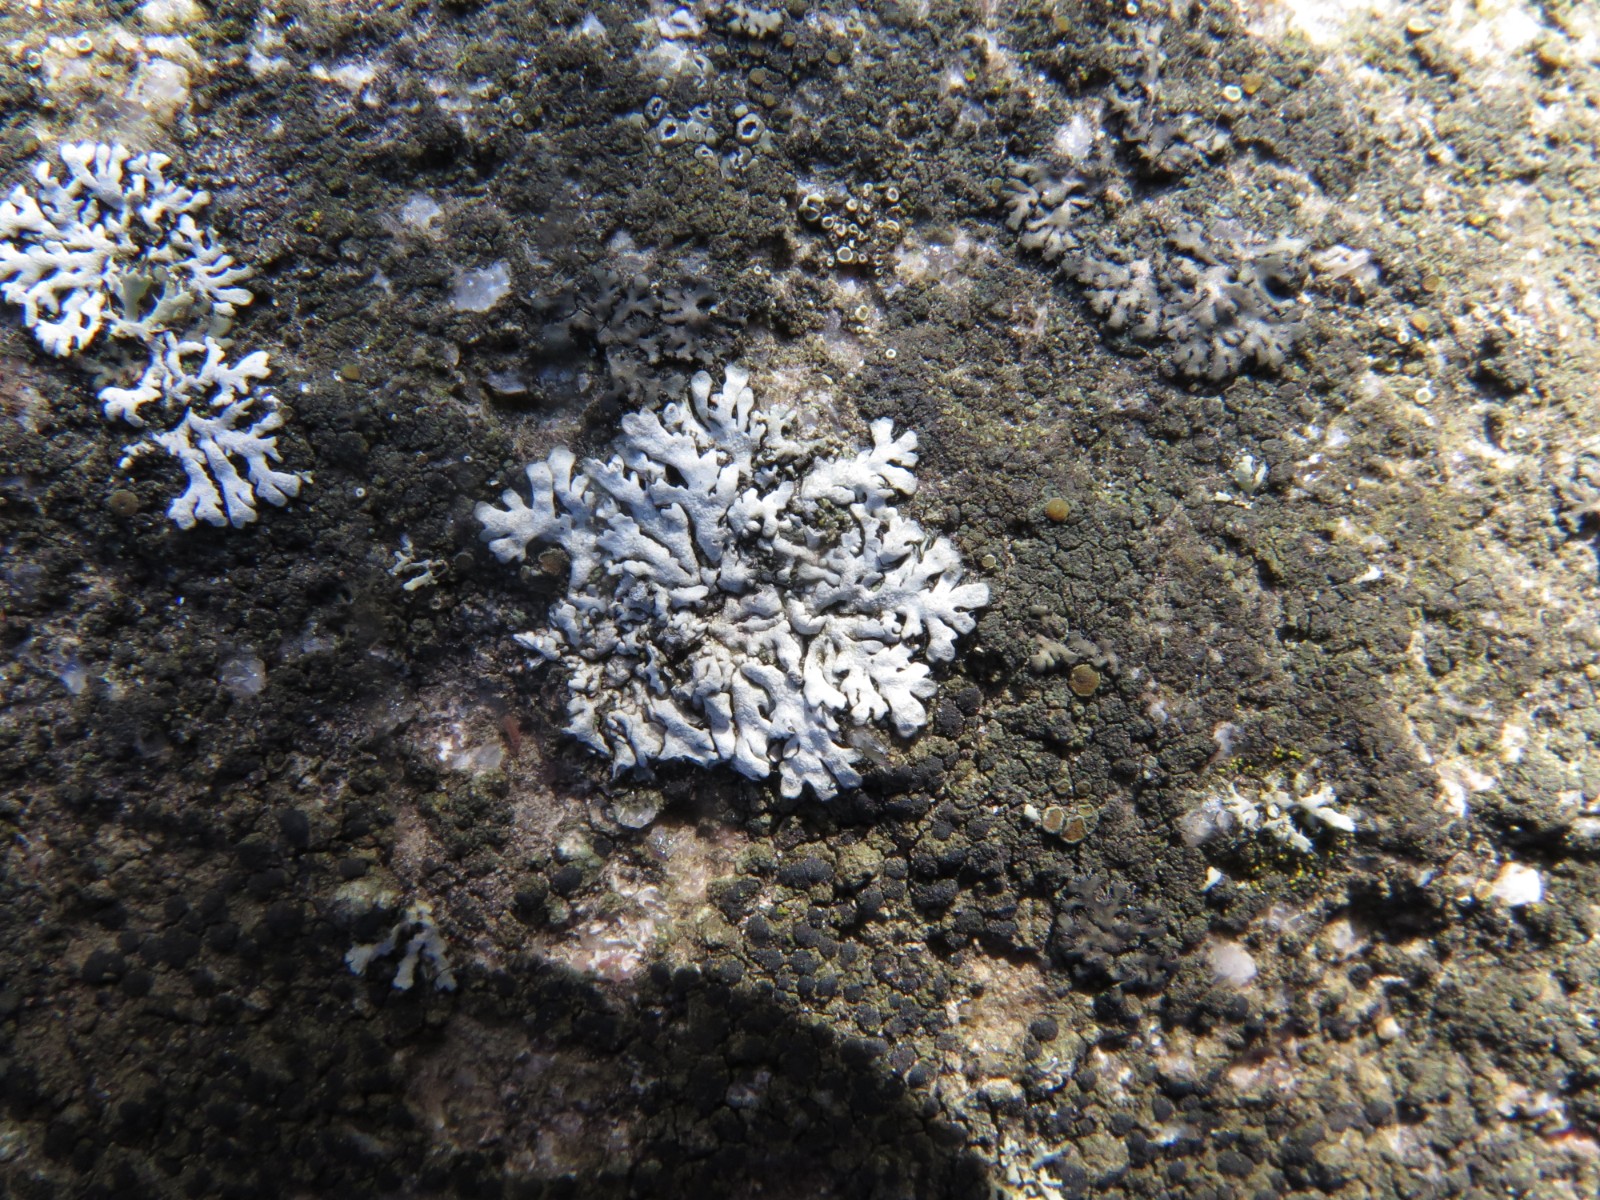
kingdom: Fungi
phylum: Ascomycota
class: Lecanoromycetes
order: Caliciales
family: Physciaceae
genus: Phaeophyscia
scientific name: Phaeophyscia orbicularis
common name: grågrøn rosetlav
